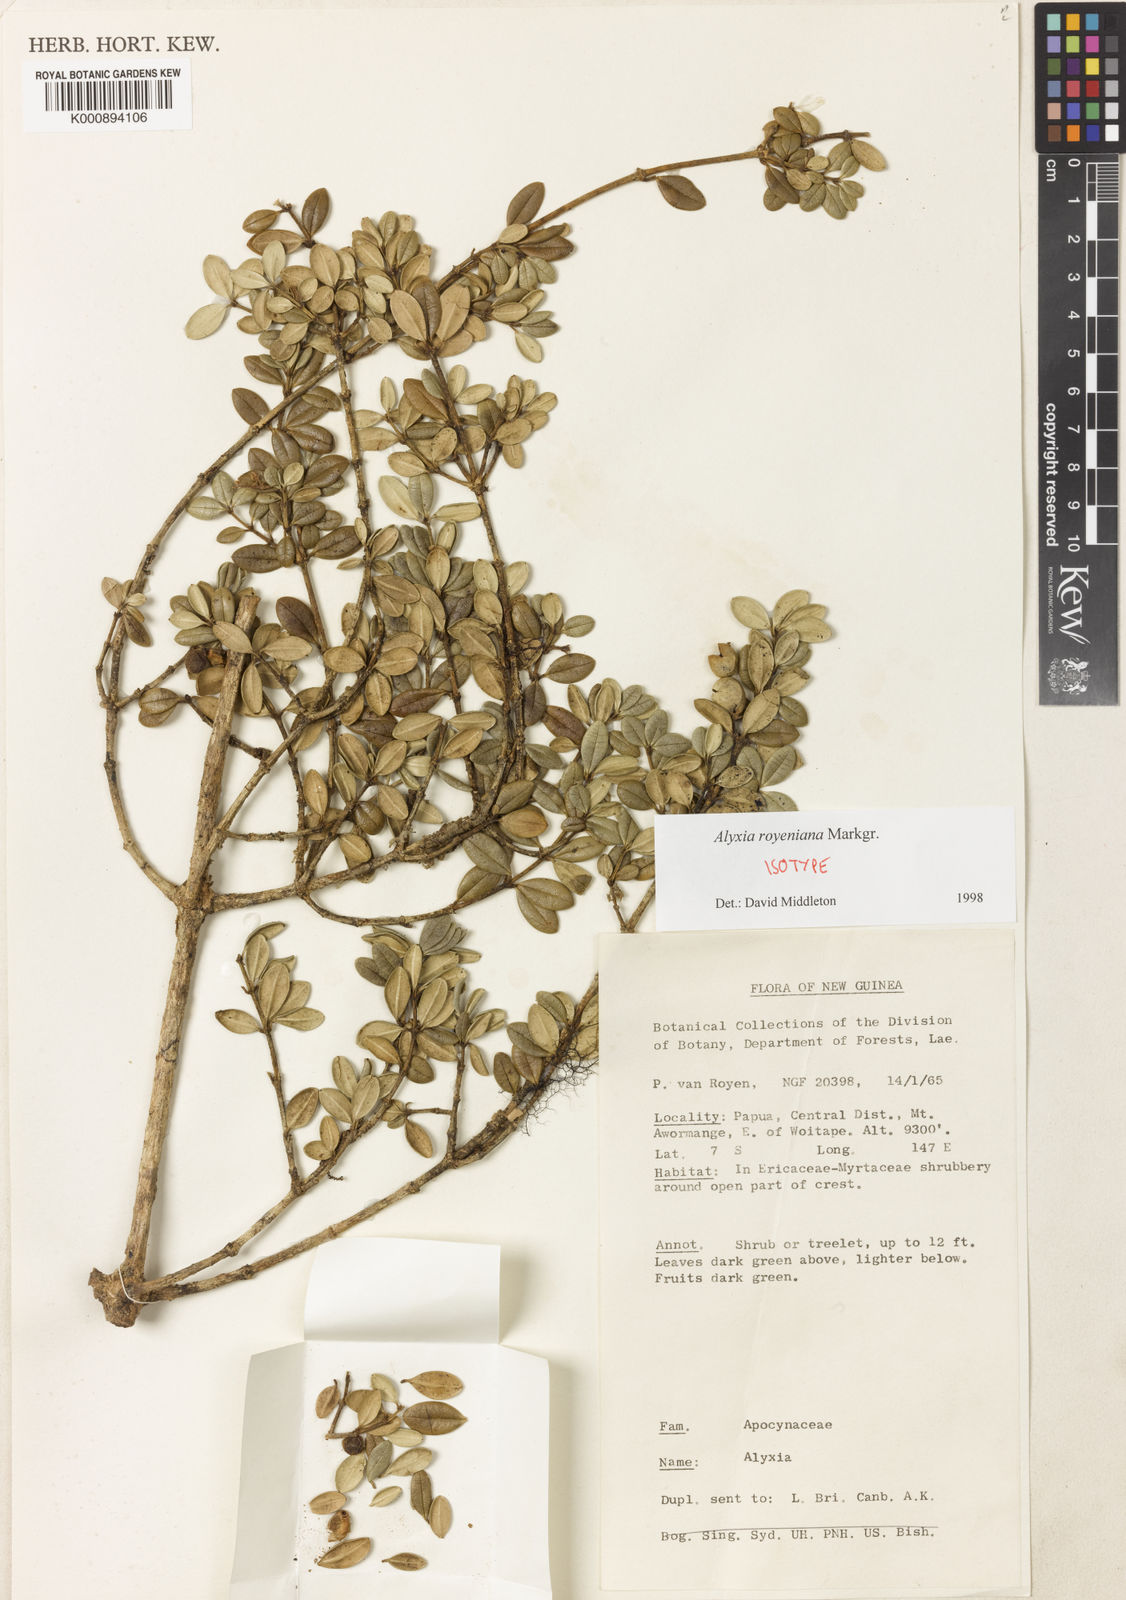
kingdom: Plantae
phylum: Tracheophyta
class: Magnoliopsida
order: Gentianales
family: Apocynaceae
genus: Alyxia
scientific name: Alyxia royeniana
